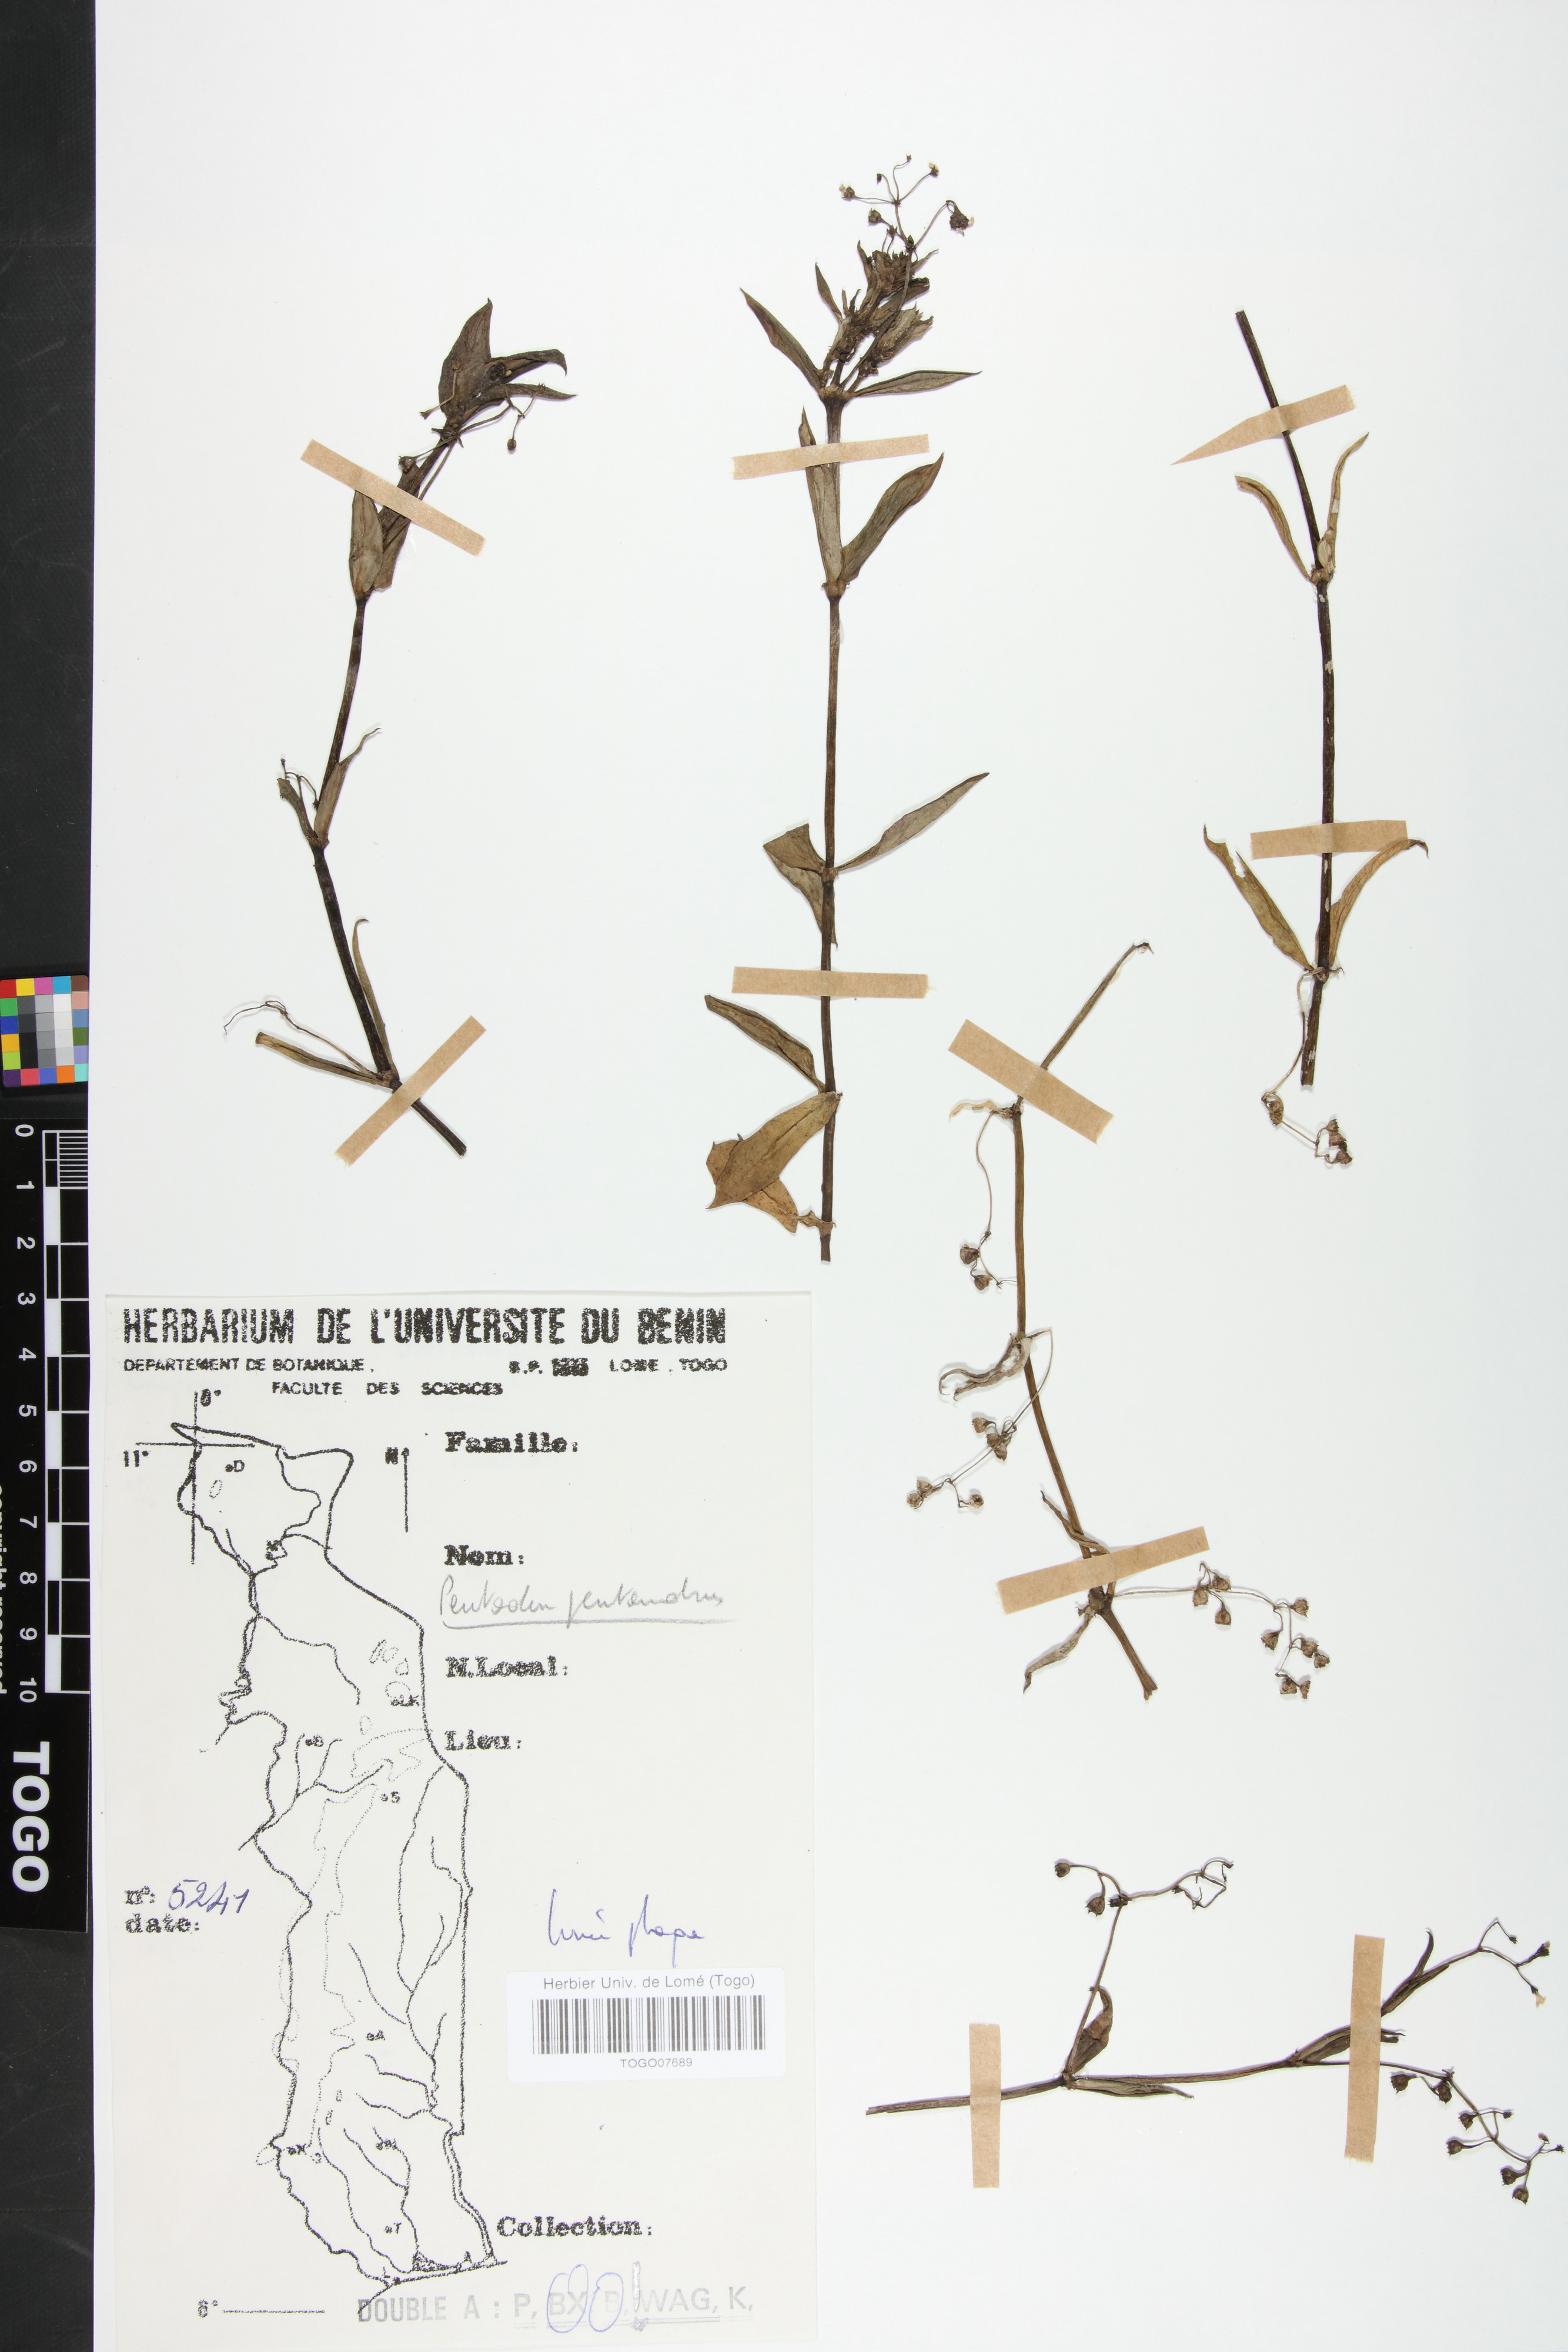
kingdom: Plantae
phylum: Tracheophyta
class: Magnoliopsida
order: Gentianales
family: Rubiaceae
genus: Pentodon
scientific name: Pentodon pentandrus
